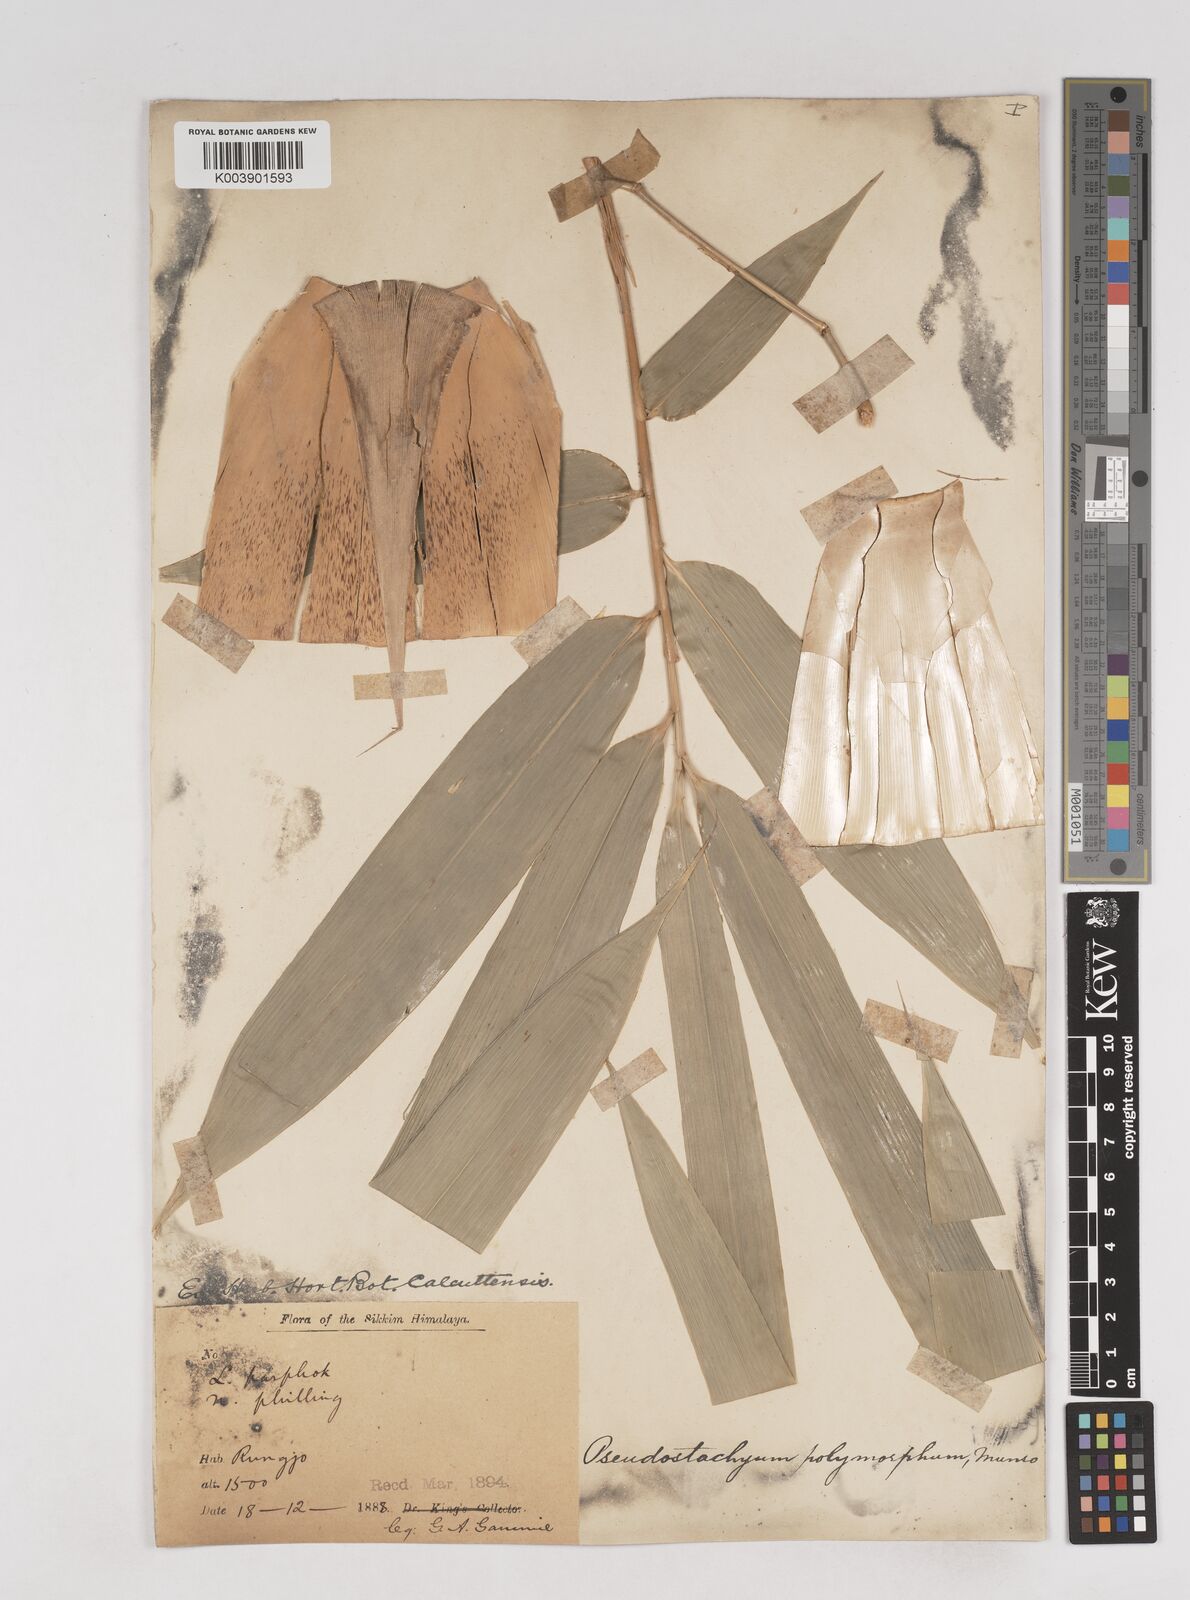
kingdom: Plantae
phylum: Tracheophyta
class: Liliopsida
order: Poales
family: Poaceae
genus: Pseudostachyum
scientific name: Pseudostachyum polymorphum
